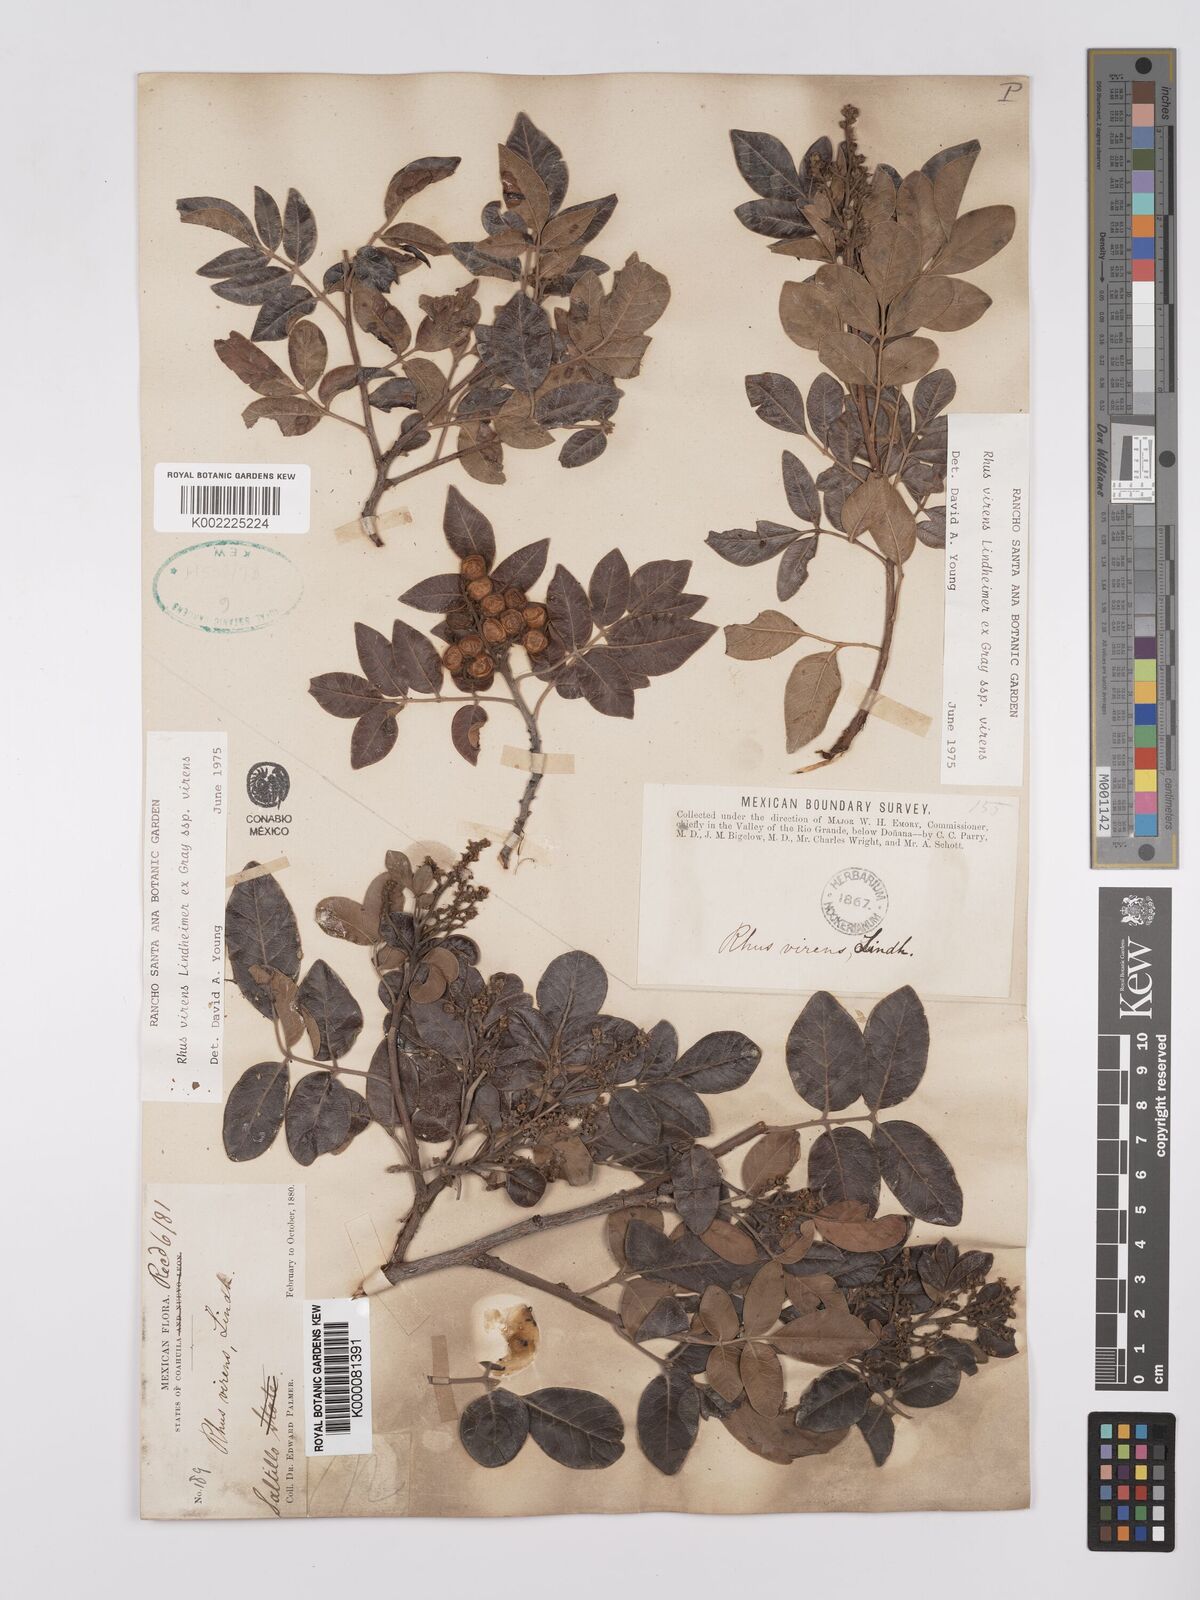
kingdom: Plantae
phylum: Tracheophyta
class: Magnoliopsida
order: Sapindales
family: Anacardiaceae
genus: Rhus
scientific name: Rhus virens
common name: Evergreen sumac
